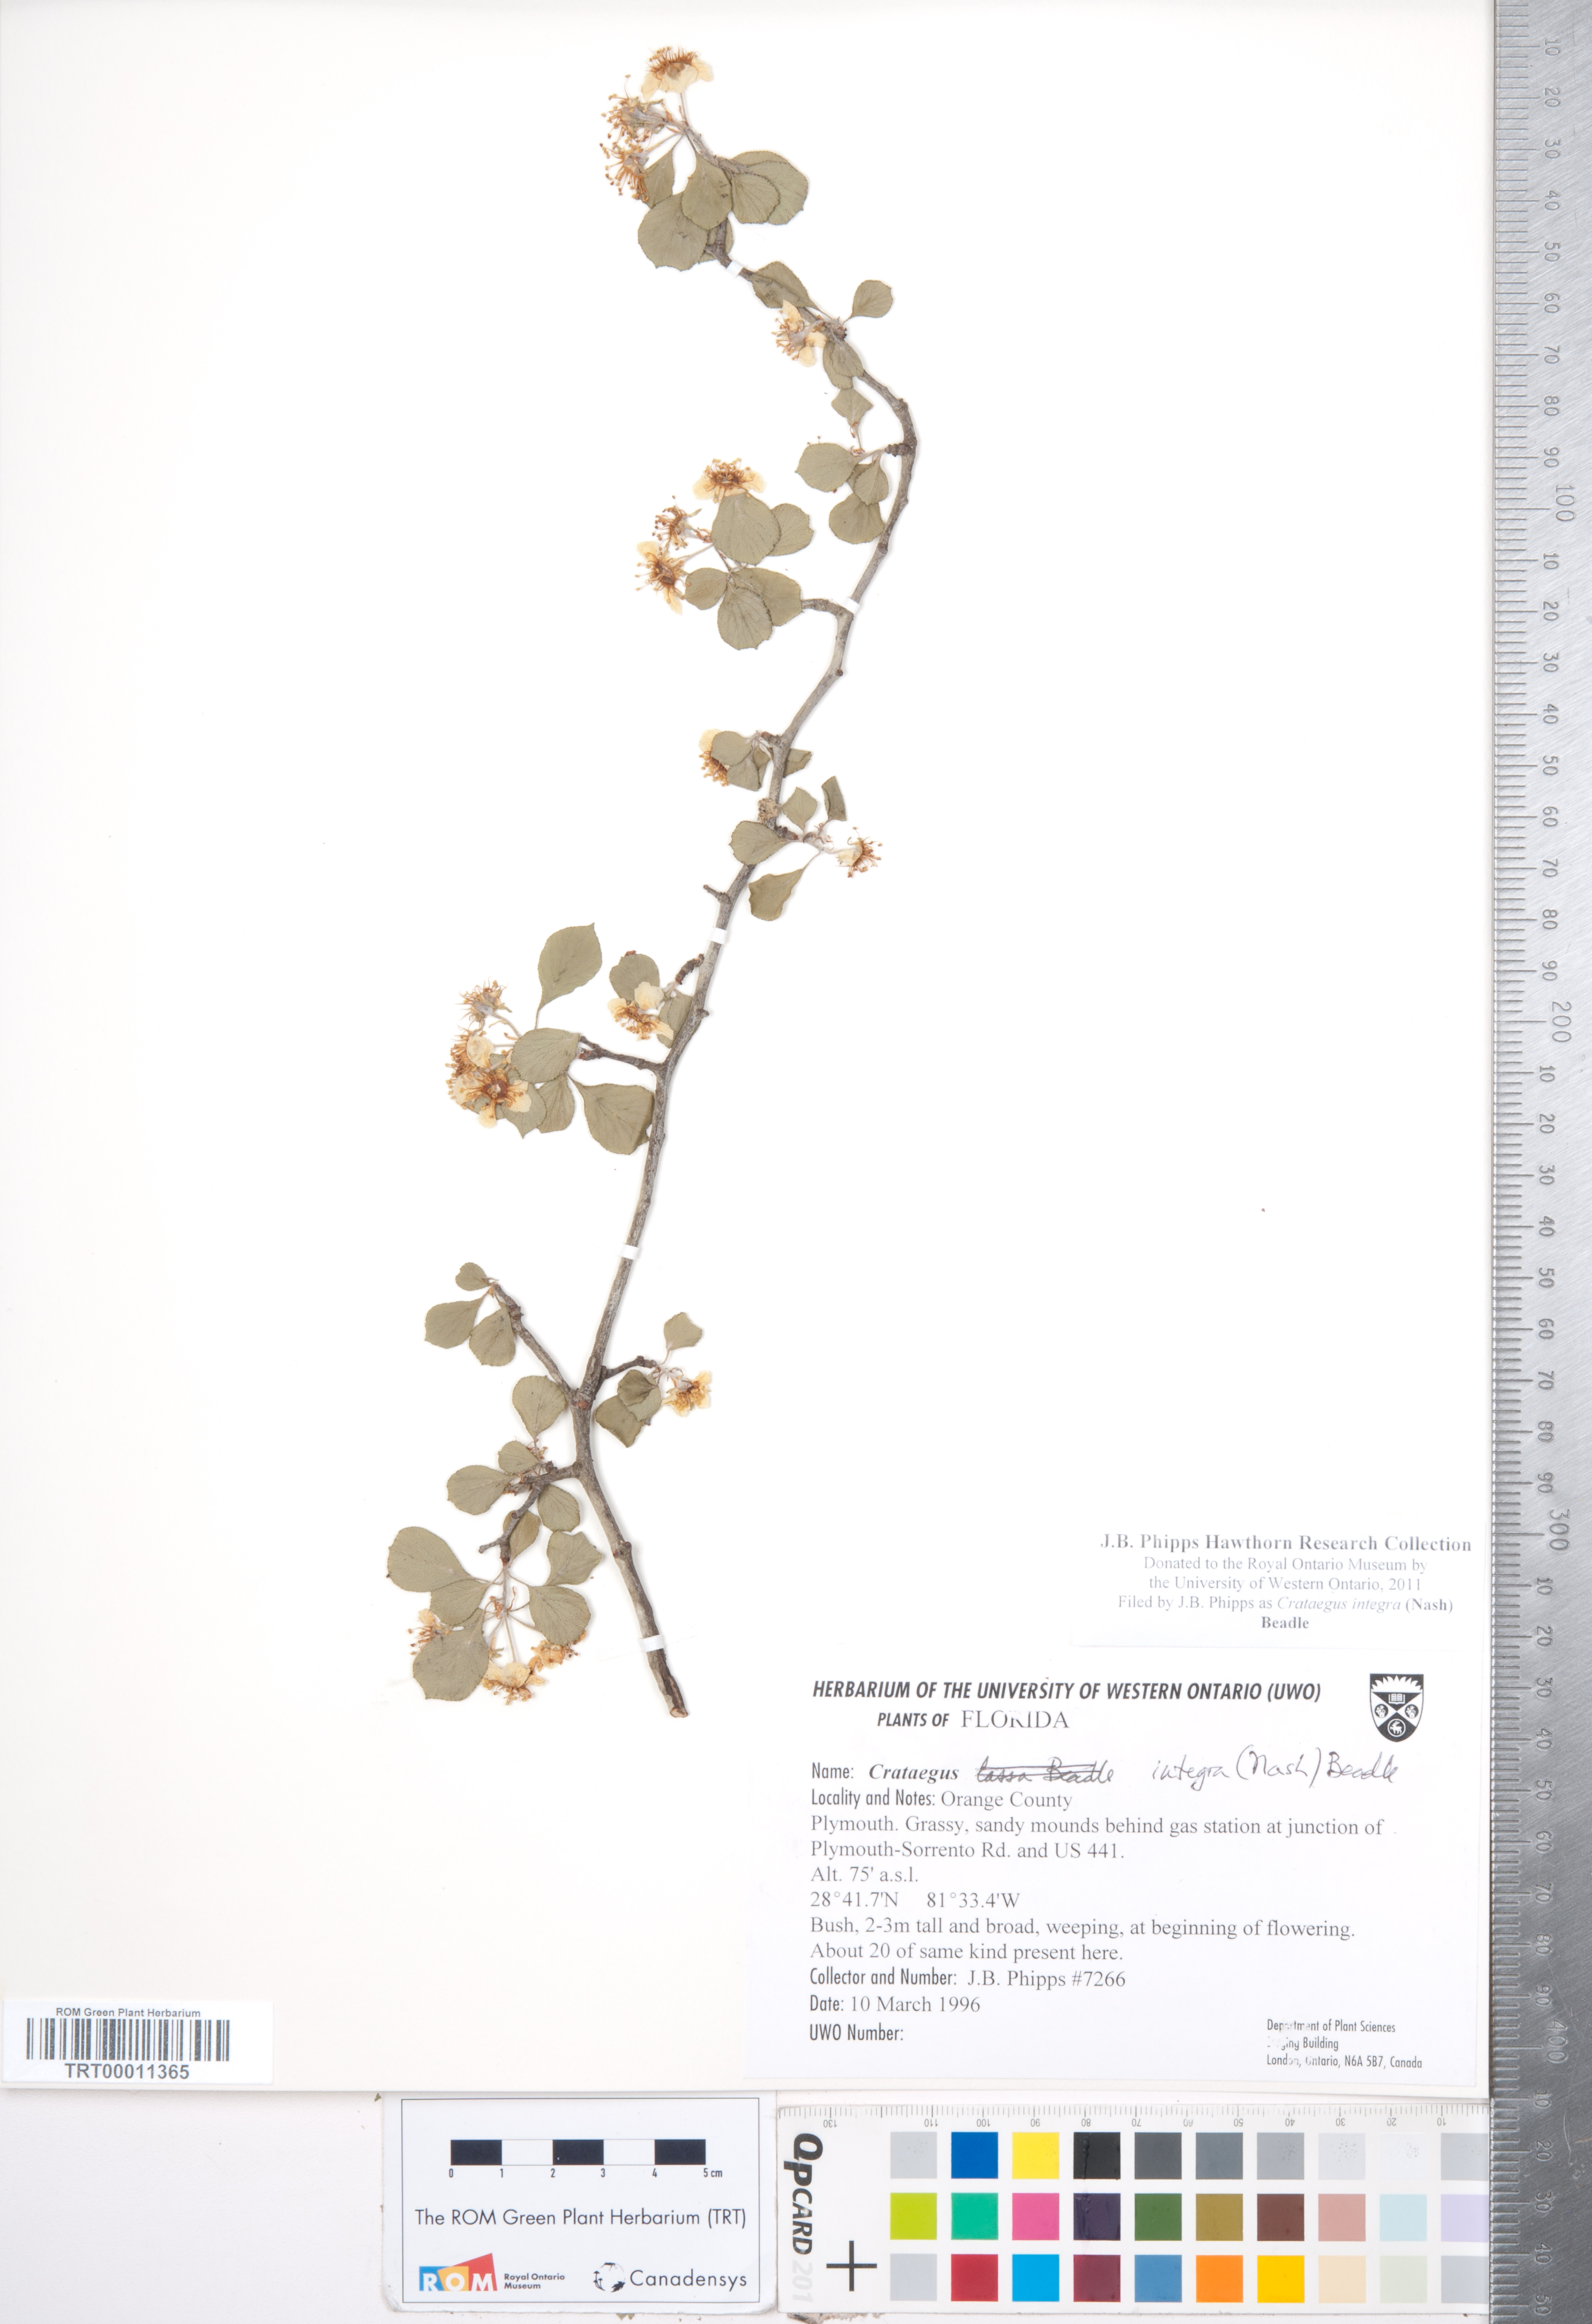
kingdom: Plantae
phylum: Tracheophyta
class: Magnoliopsida
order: Rosales
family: Rosaceae
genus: Crataegus
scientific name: Crataegus lassa
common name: Florida hawthorn
